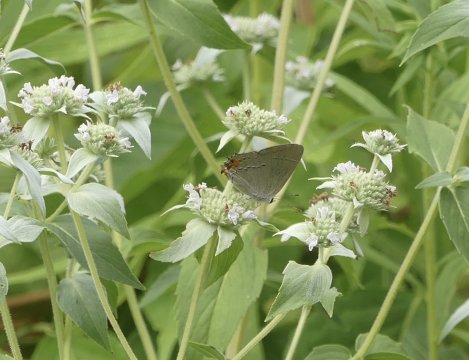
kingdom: Animalia
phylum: Arthropoda
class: Insecta
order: Lepidoptera
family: Lycaenidae
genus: Strymon
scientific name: Strymon melinus
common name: Gray Hairstreak
